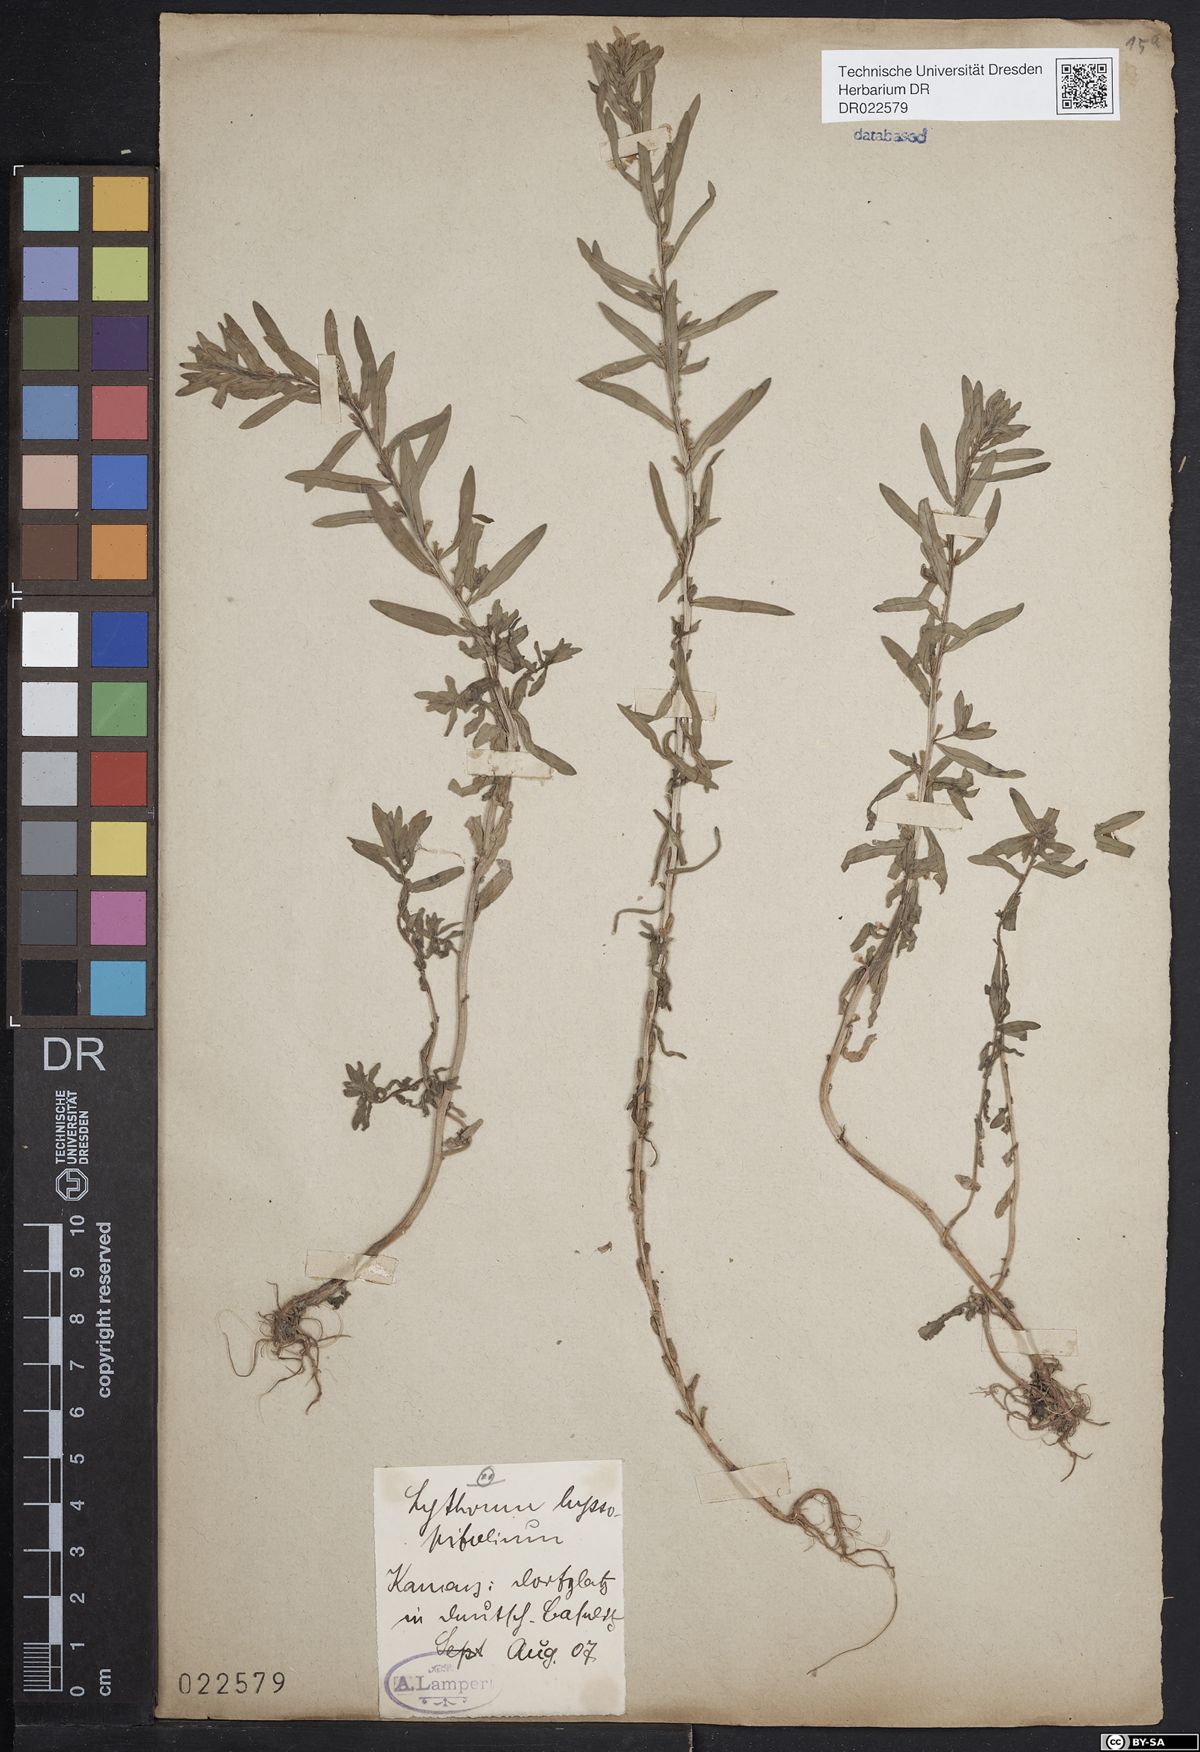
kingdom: Plantae
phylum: Tracheophyta
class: Magnoliopsida
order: Myrtales
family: Lythraceae
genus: Lythrum
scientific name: Lythrum hyssopifolia
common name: Grass-poly
